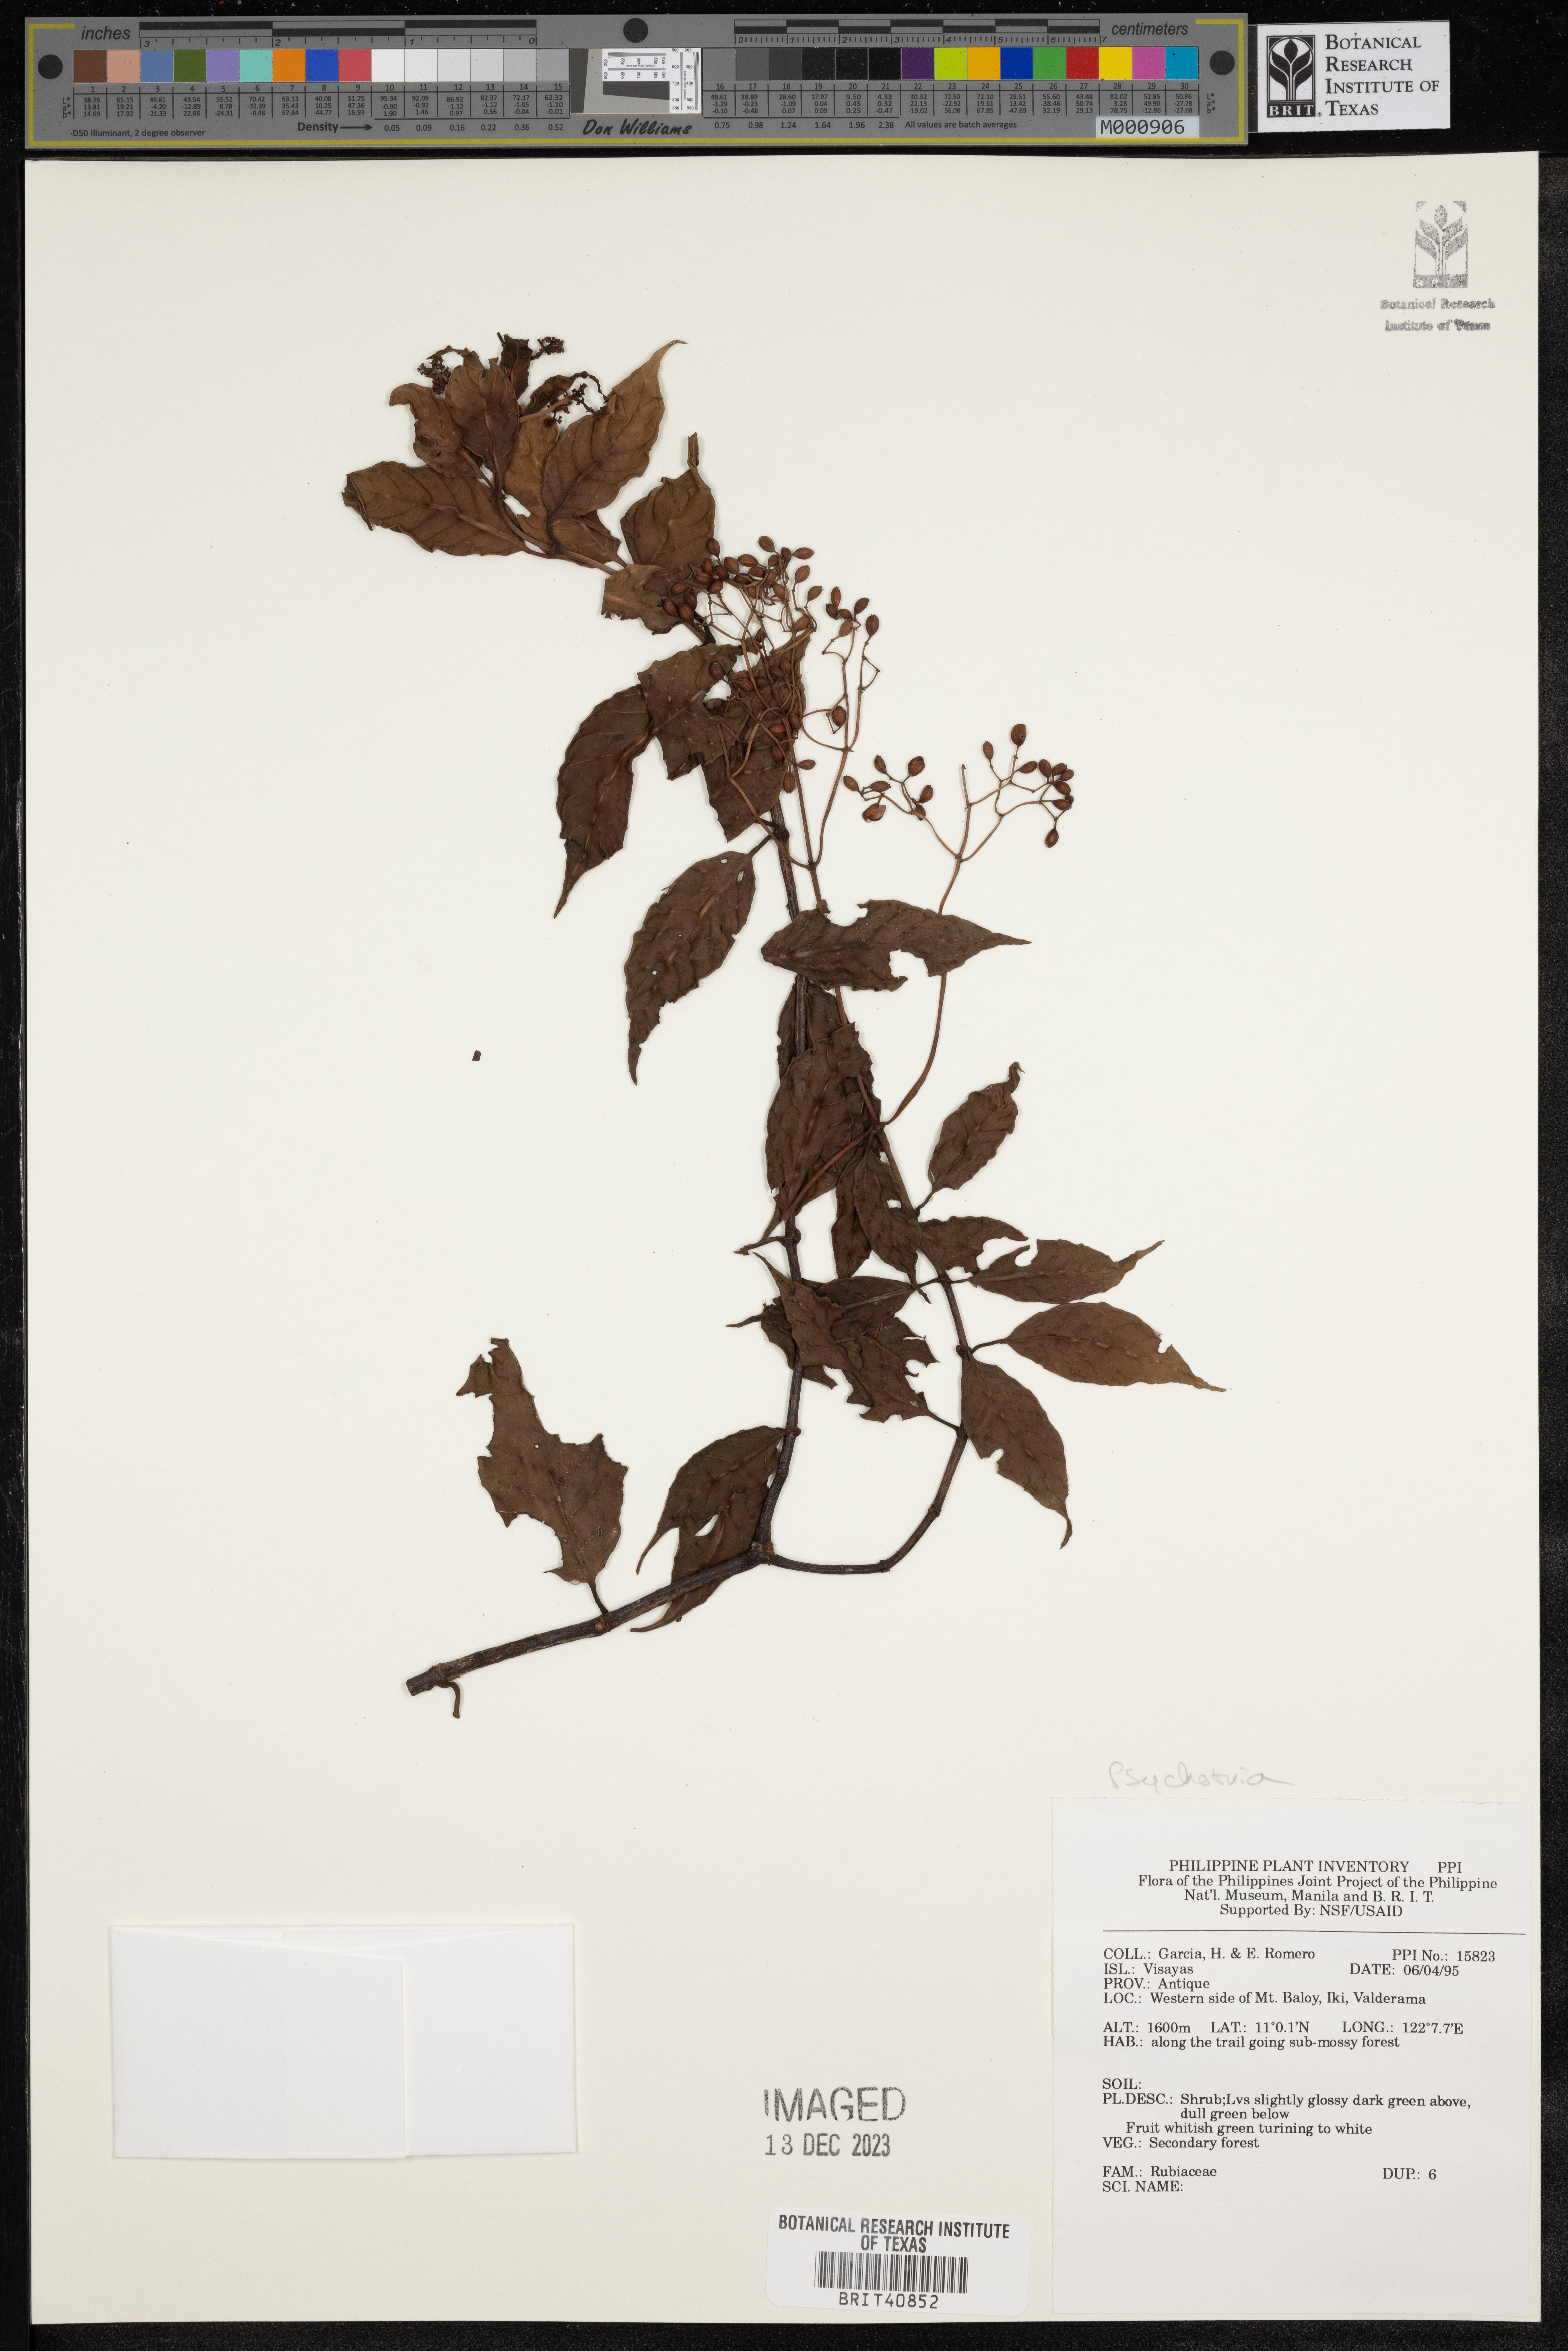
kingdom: Plantae
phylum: Tracheophyta
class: Magnoliopsida
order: Gentianales
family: Rubiaceae
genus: Psychotria
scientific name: Psychotria
